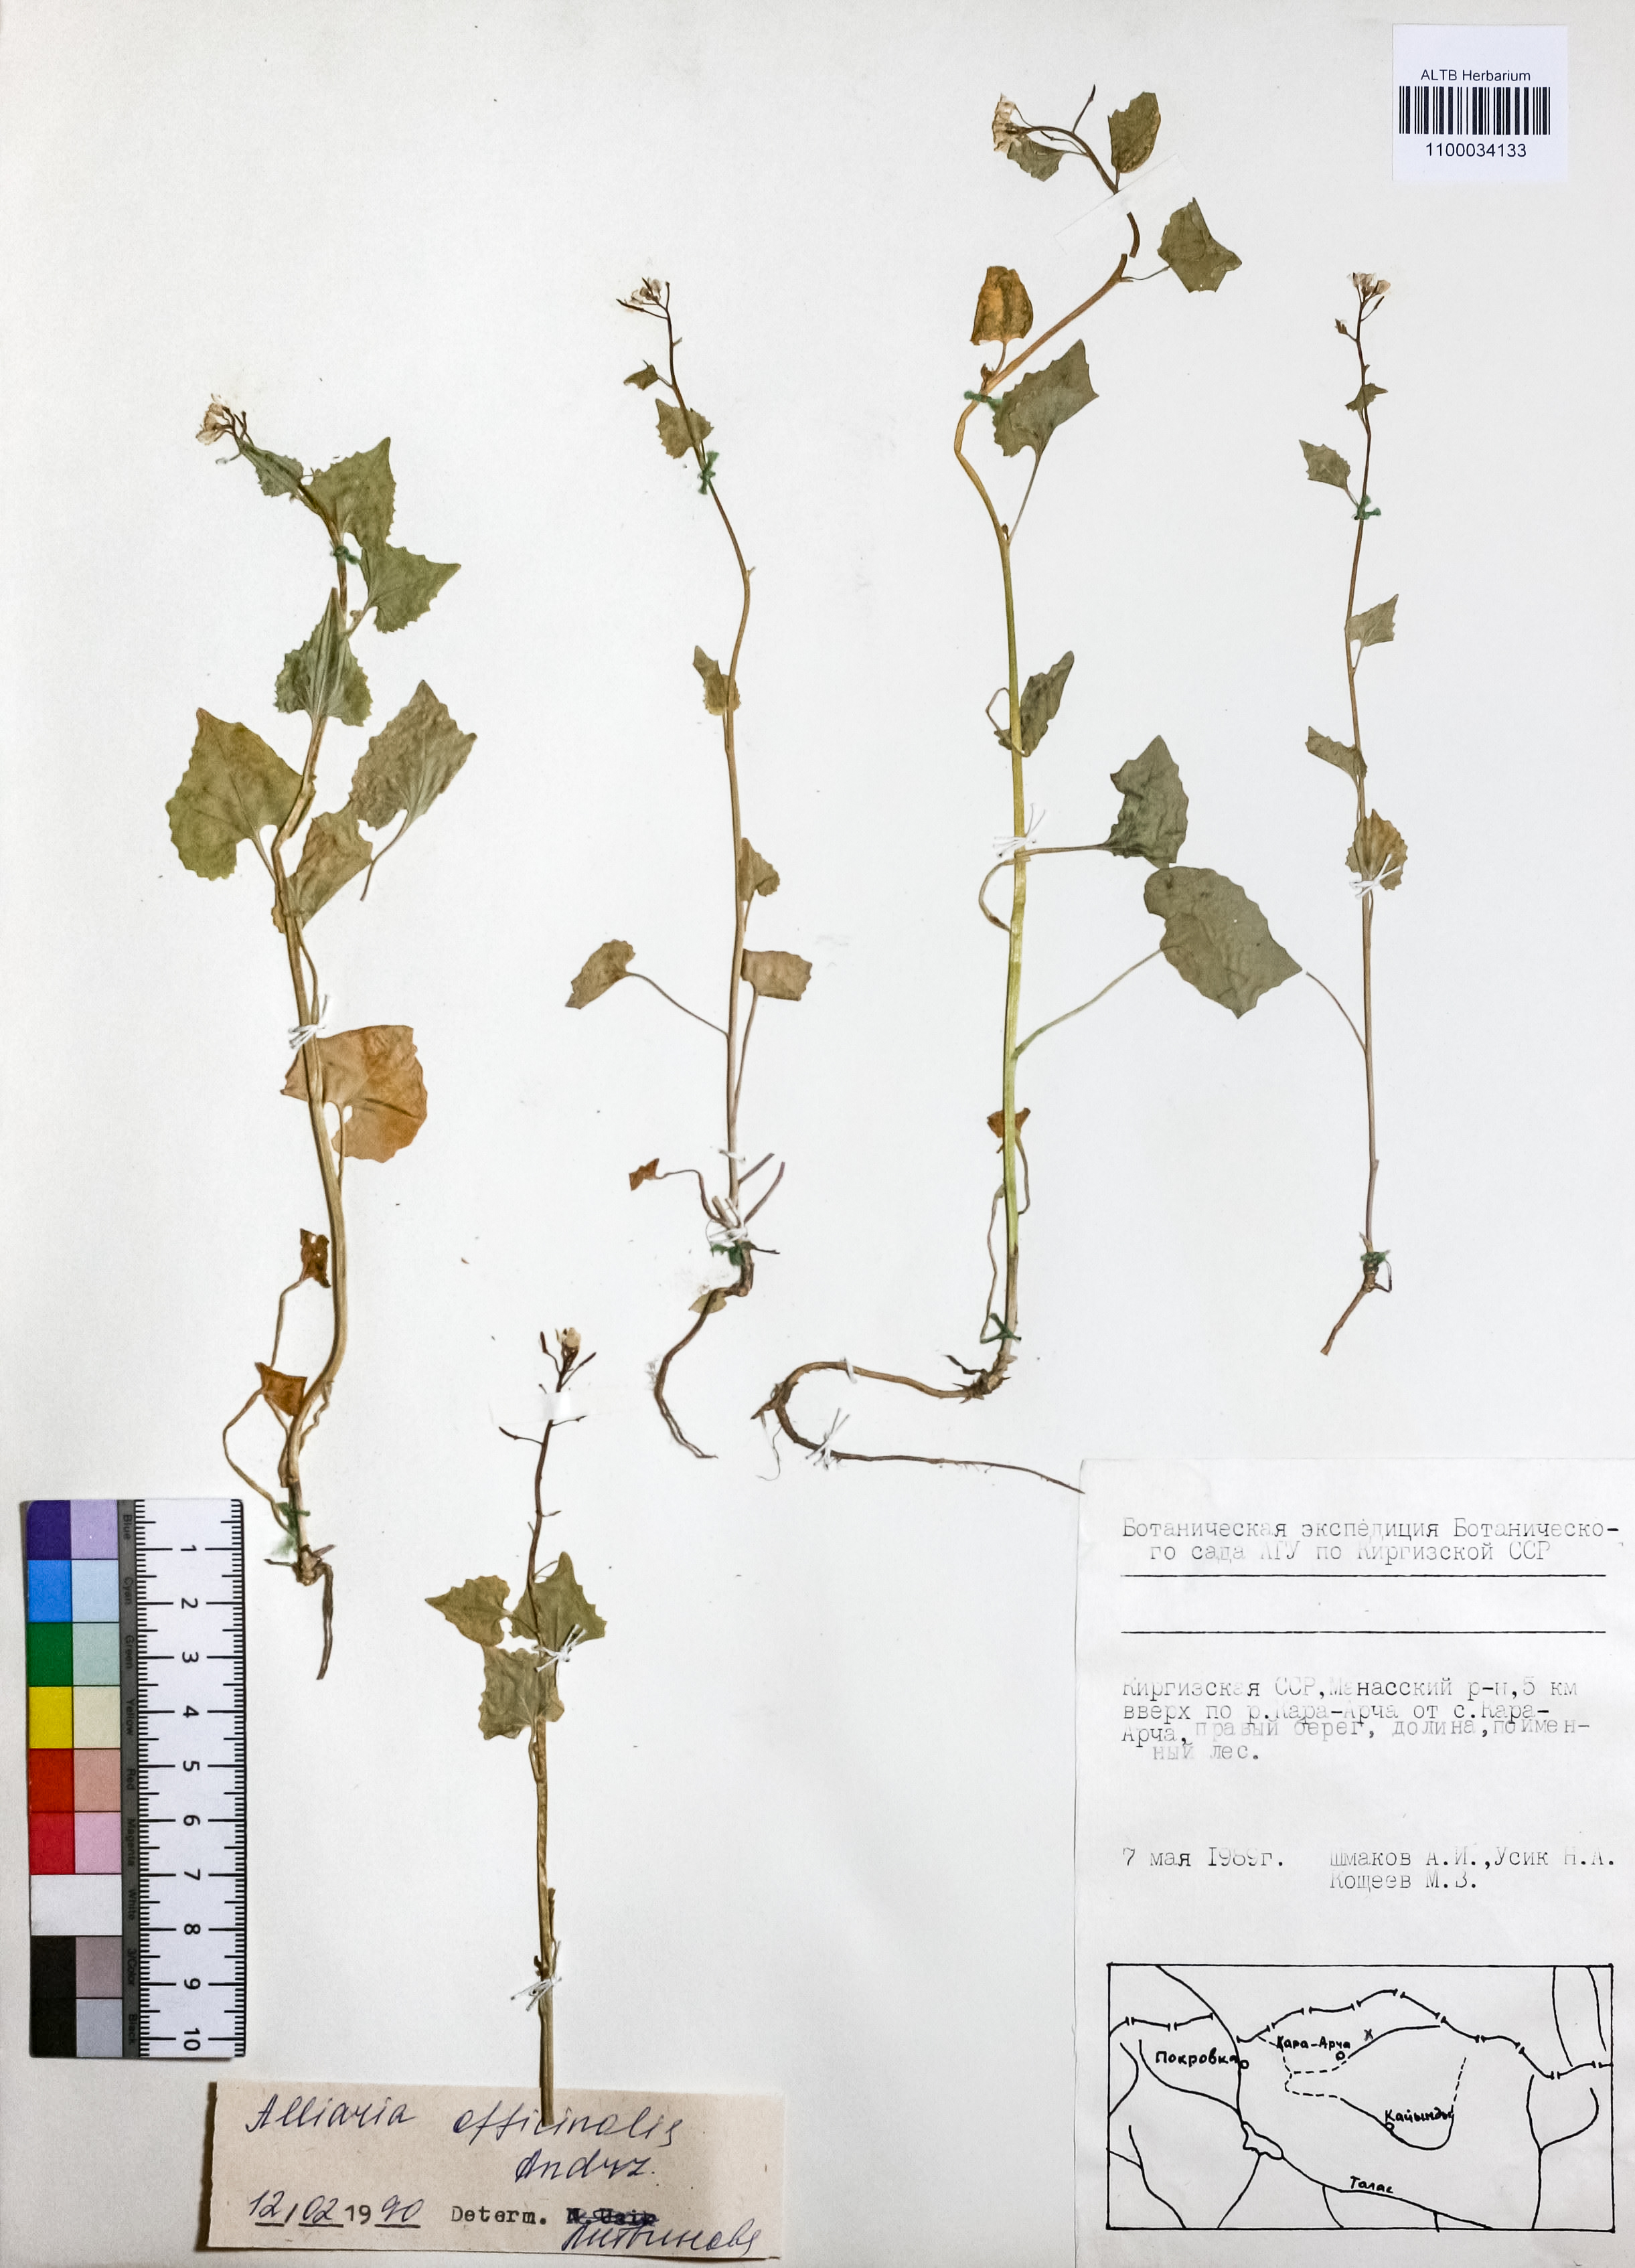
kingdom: Plantae
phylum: Tracheophyta
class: Magnoliopsida
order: Brassicales
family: Brassicaceae
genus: Alliaria
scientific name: Alliaria petiolata
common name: Garlic mustard
